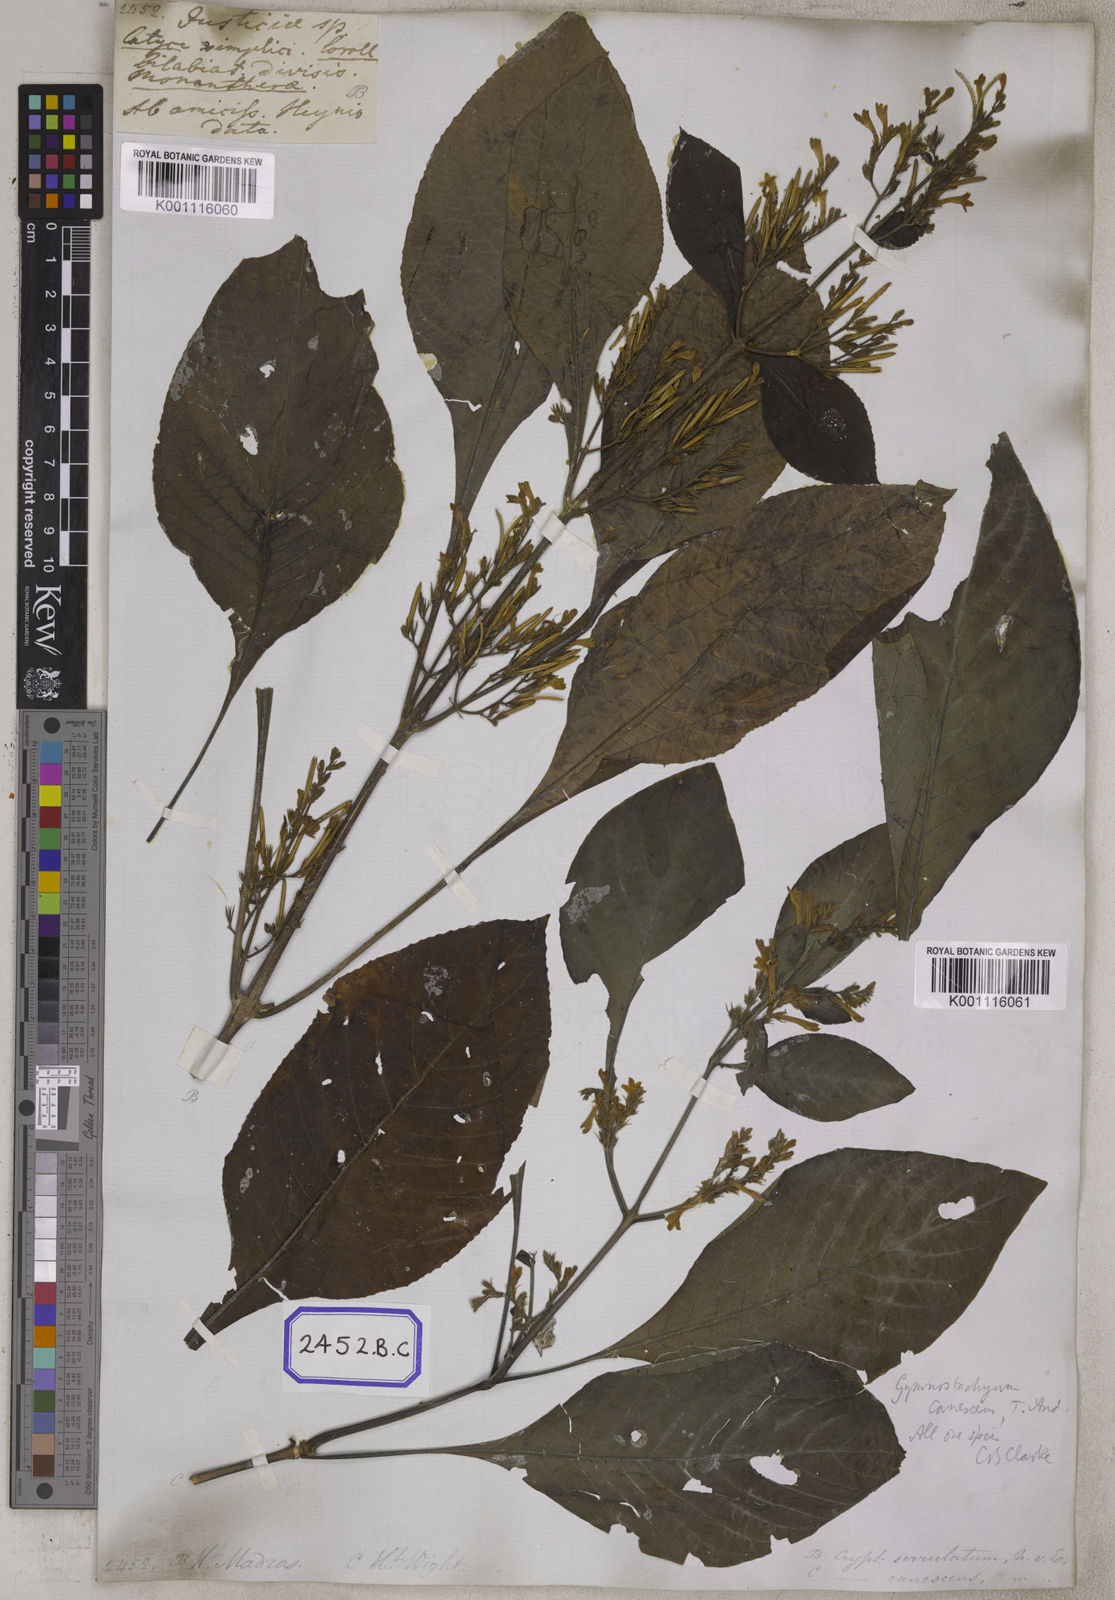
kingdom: Plantae
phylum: Tracheophyta
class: Magnoliopsida
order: Lamiales
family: Acanthaceae
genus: Gymnostachyum
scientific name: Gymnostachyum pubescens
